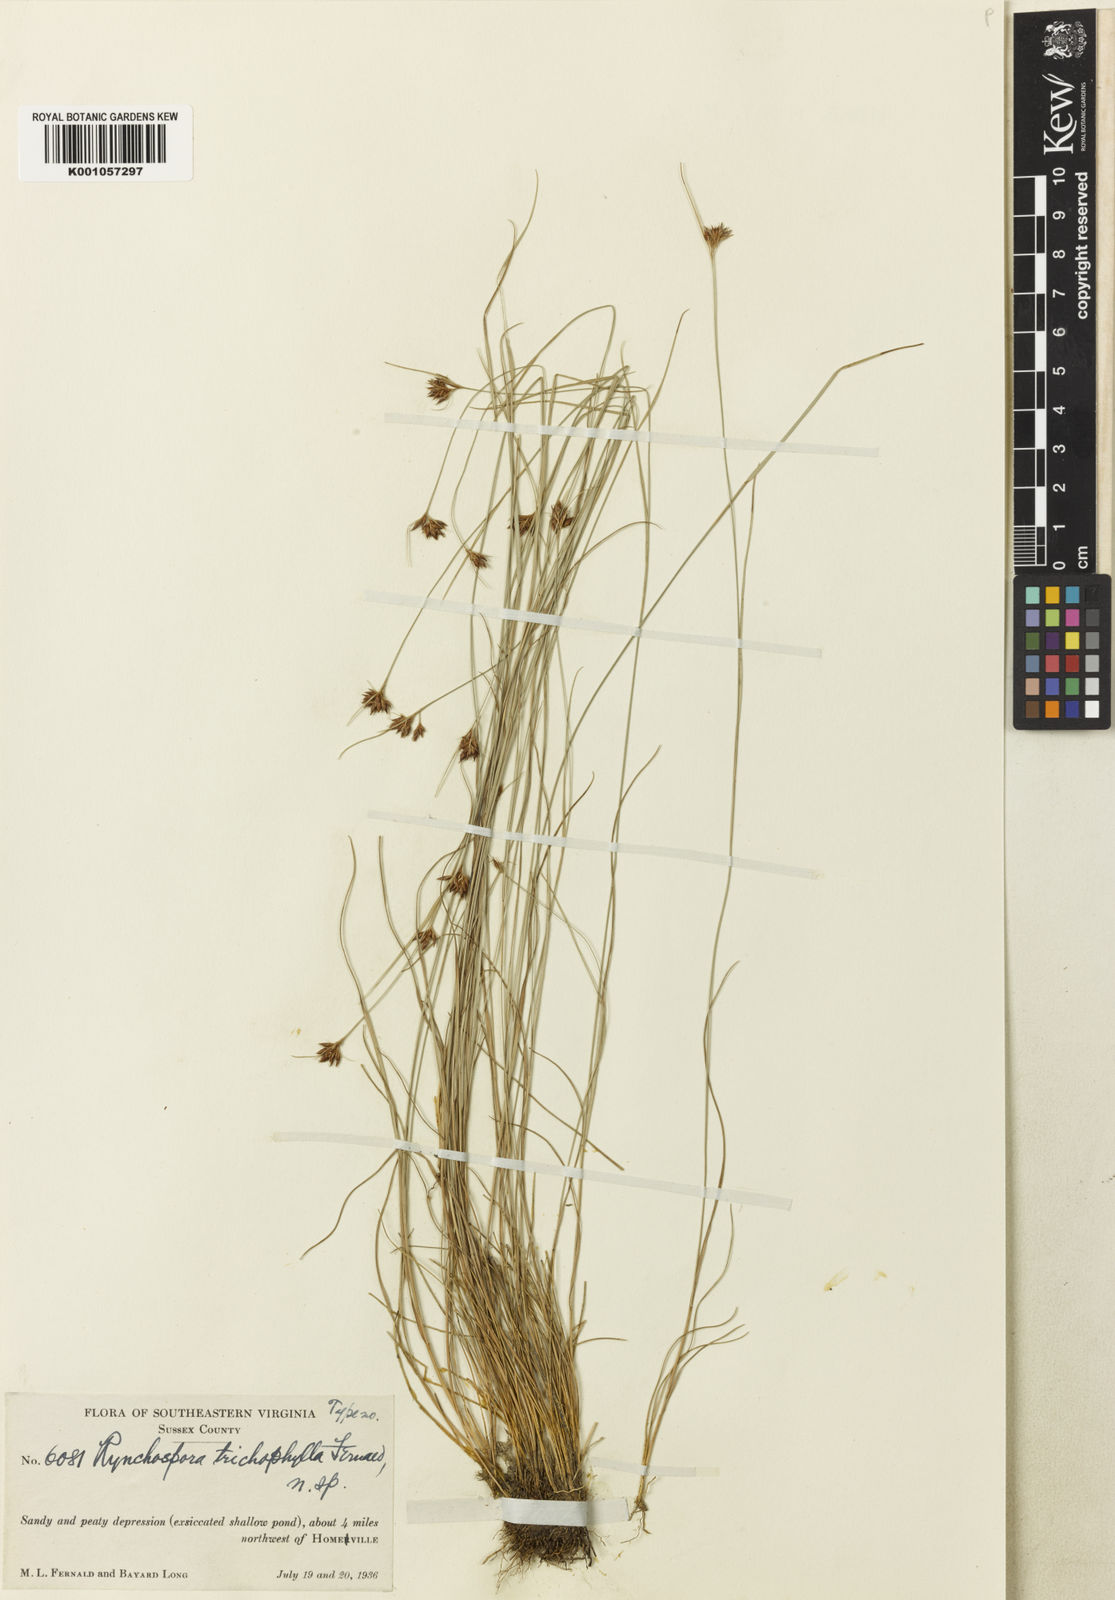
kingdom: Plantae
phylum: Tracheophyta
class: Liliopsida
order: Poales
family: Cyperaceae
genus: Rhynchospora
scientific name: Rhynchospora gracilenta
